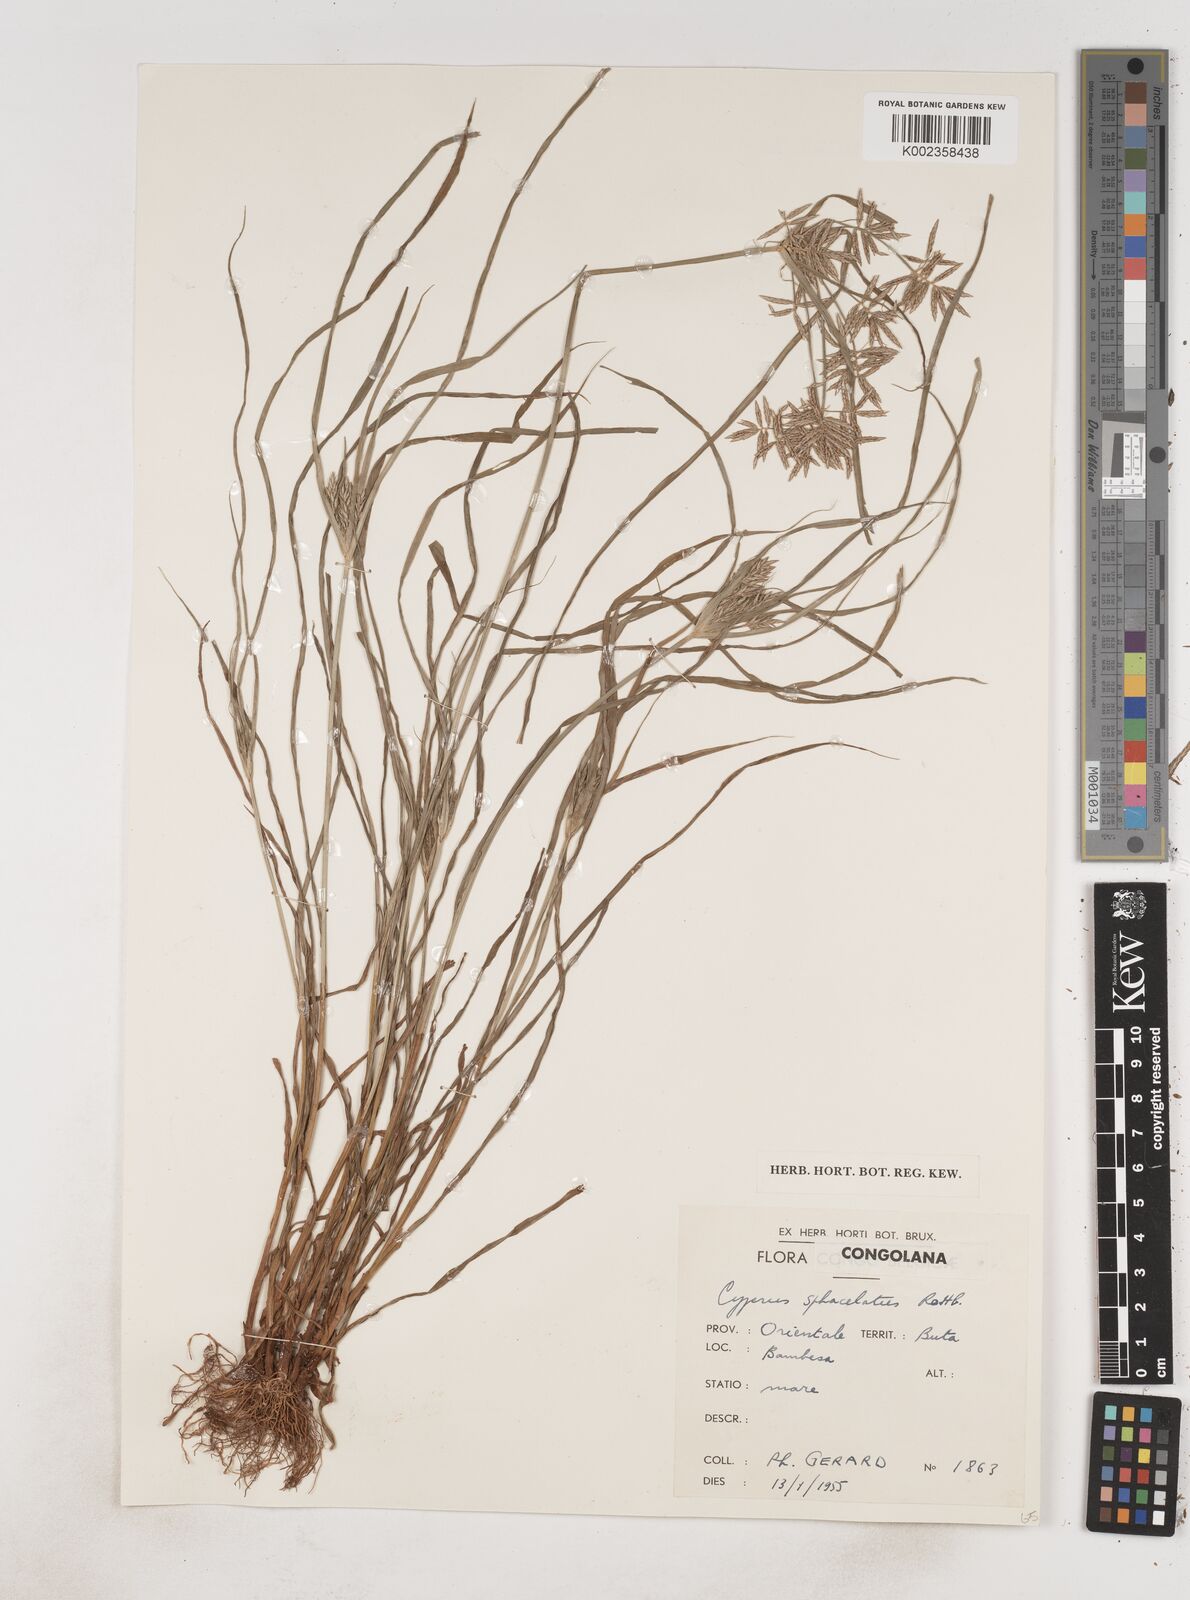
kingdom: Plantae
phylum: Tracheophyta
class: Liliopsida
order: Poales
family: Cyperaceae
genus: Cyperus
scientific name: Cyperus sphacelatus
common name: Roadside flatsedge
